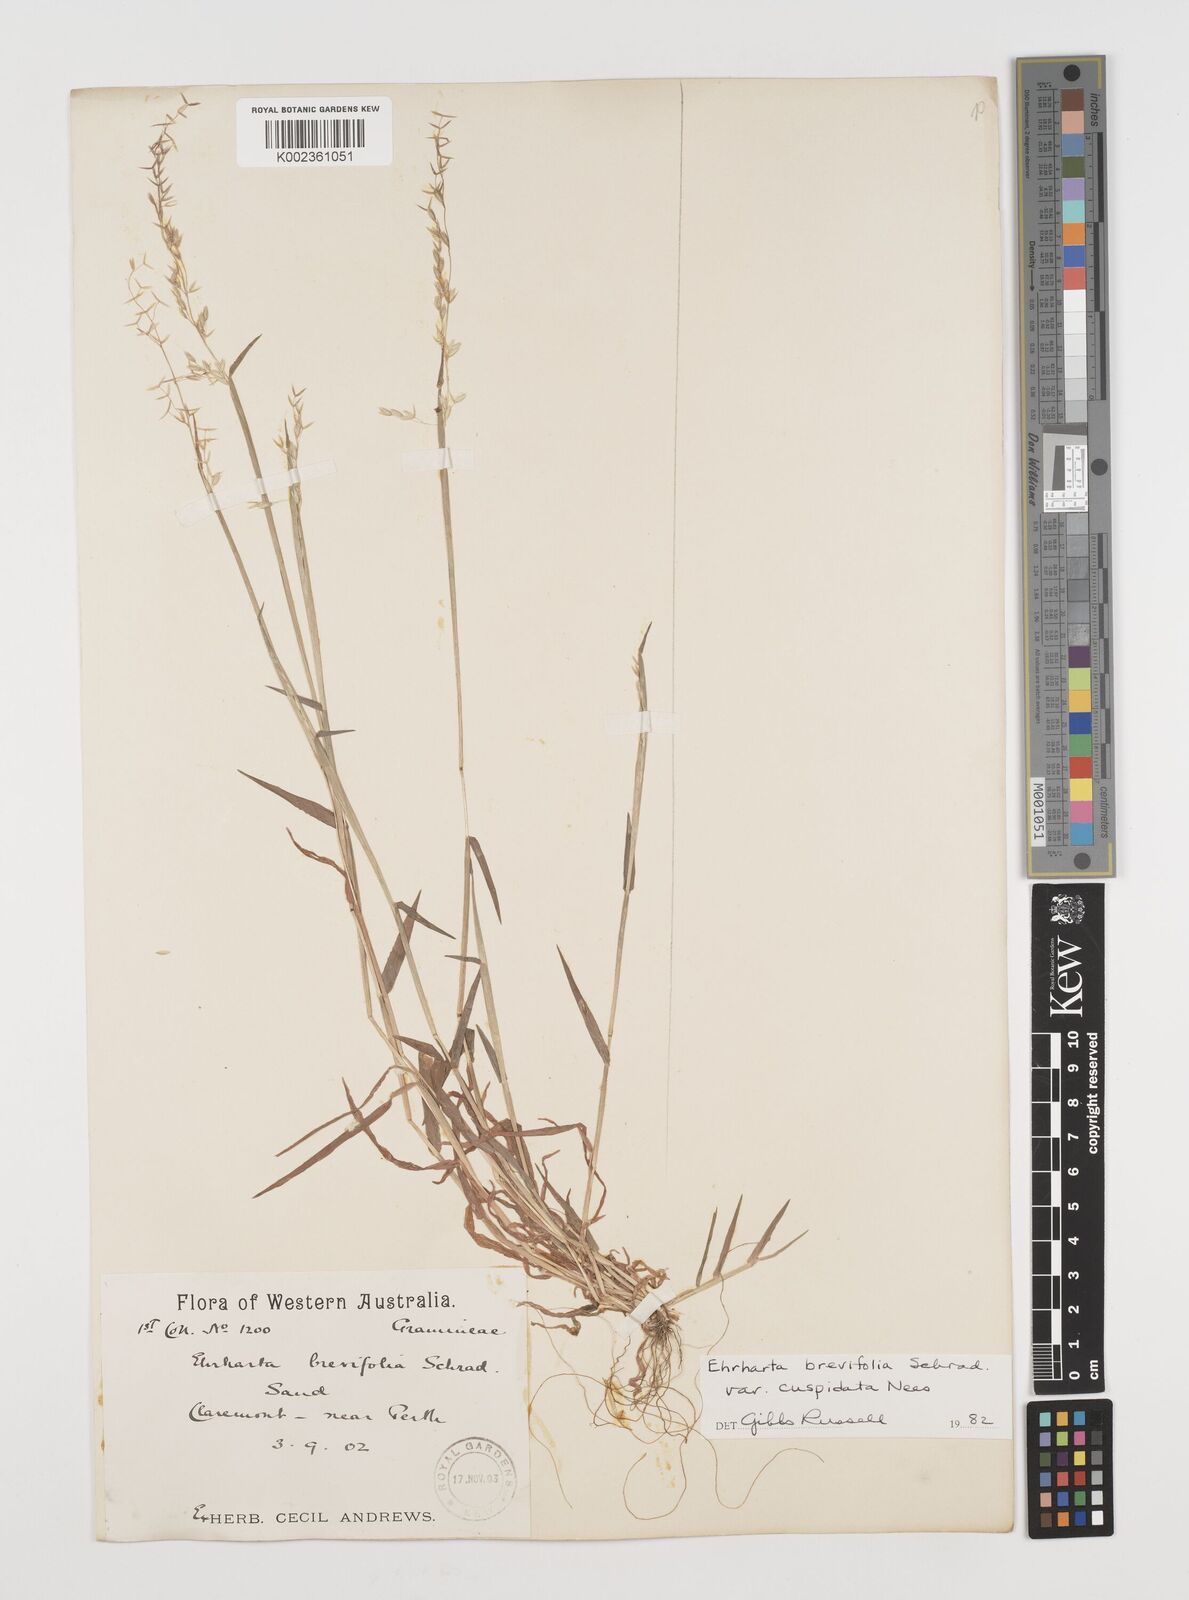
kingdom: Plantae
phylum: Tracheophyta
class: Liliopsida
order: Poales
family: Poaceae
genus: Ehrharta
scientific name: Ehrharta brevifolia
